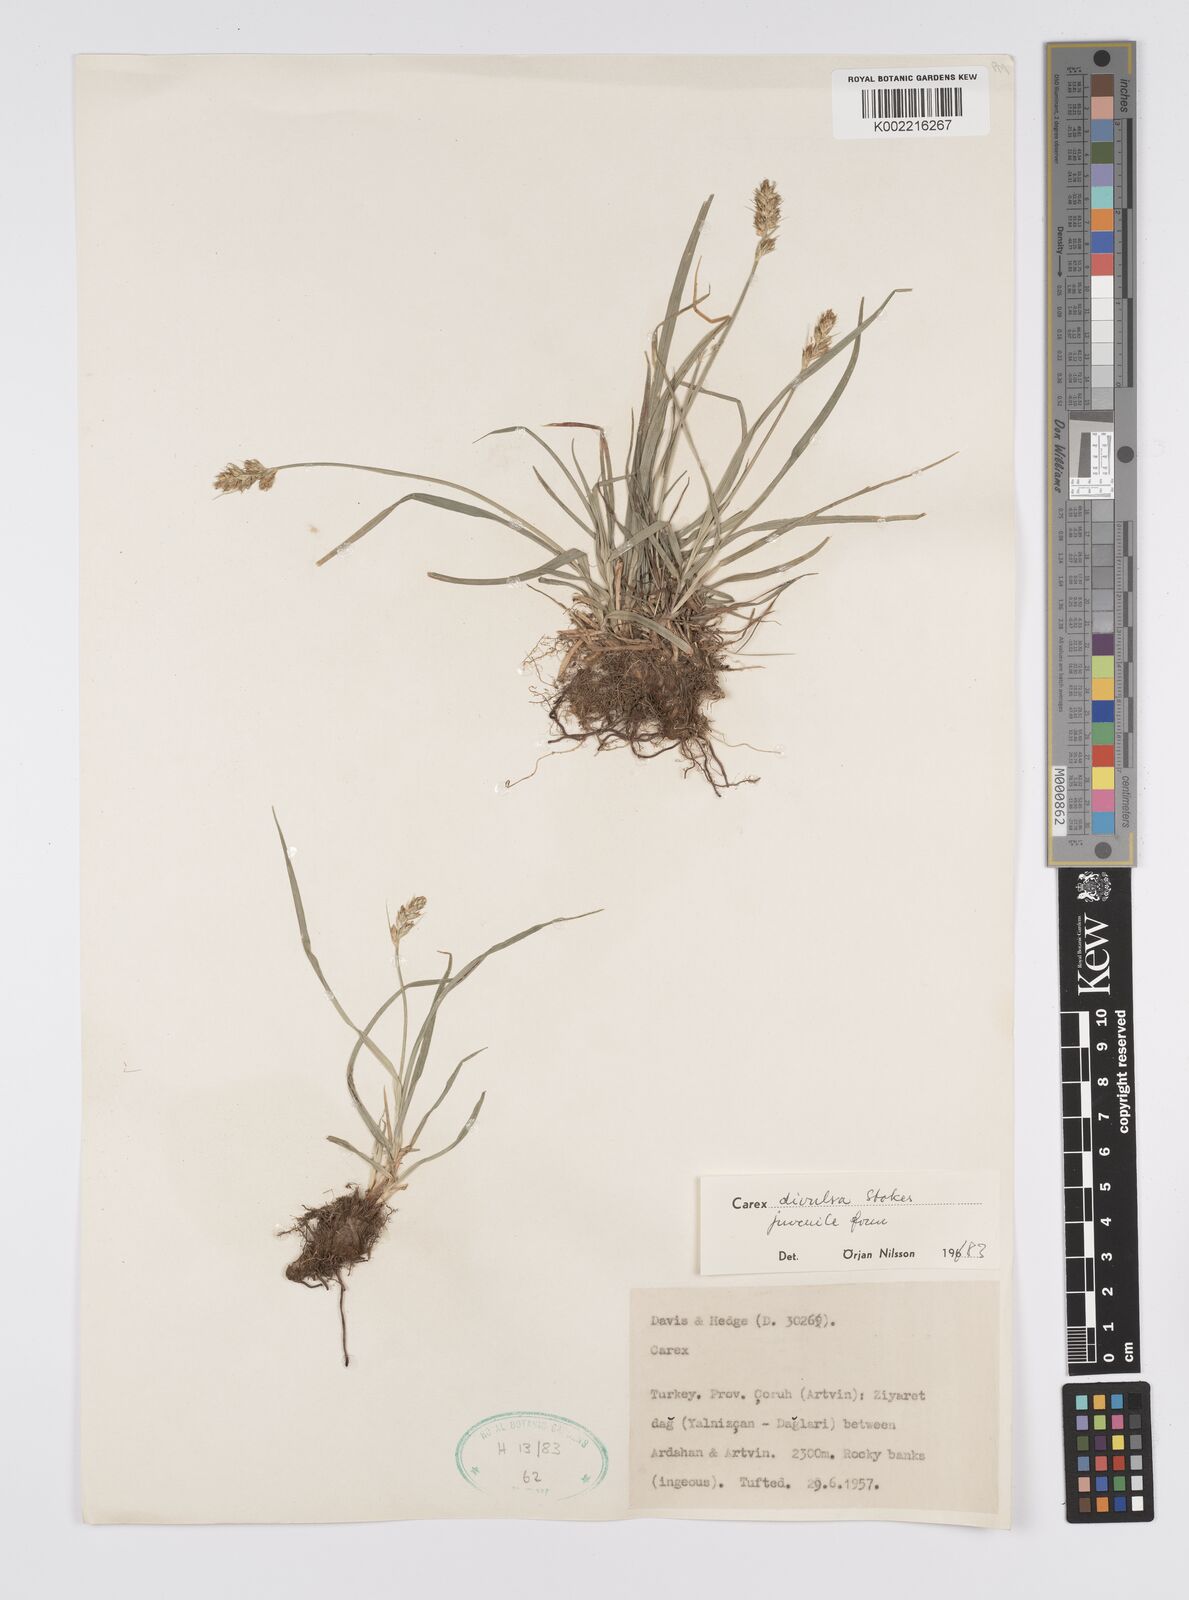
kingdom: Plantae
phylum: Tracheophyta
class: Liliopsida
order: Poales
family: Cyperaceae
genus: Carex
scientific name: Carex divulsa
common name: Grassland sedge
